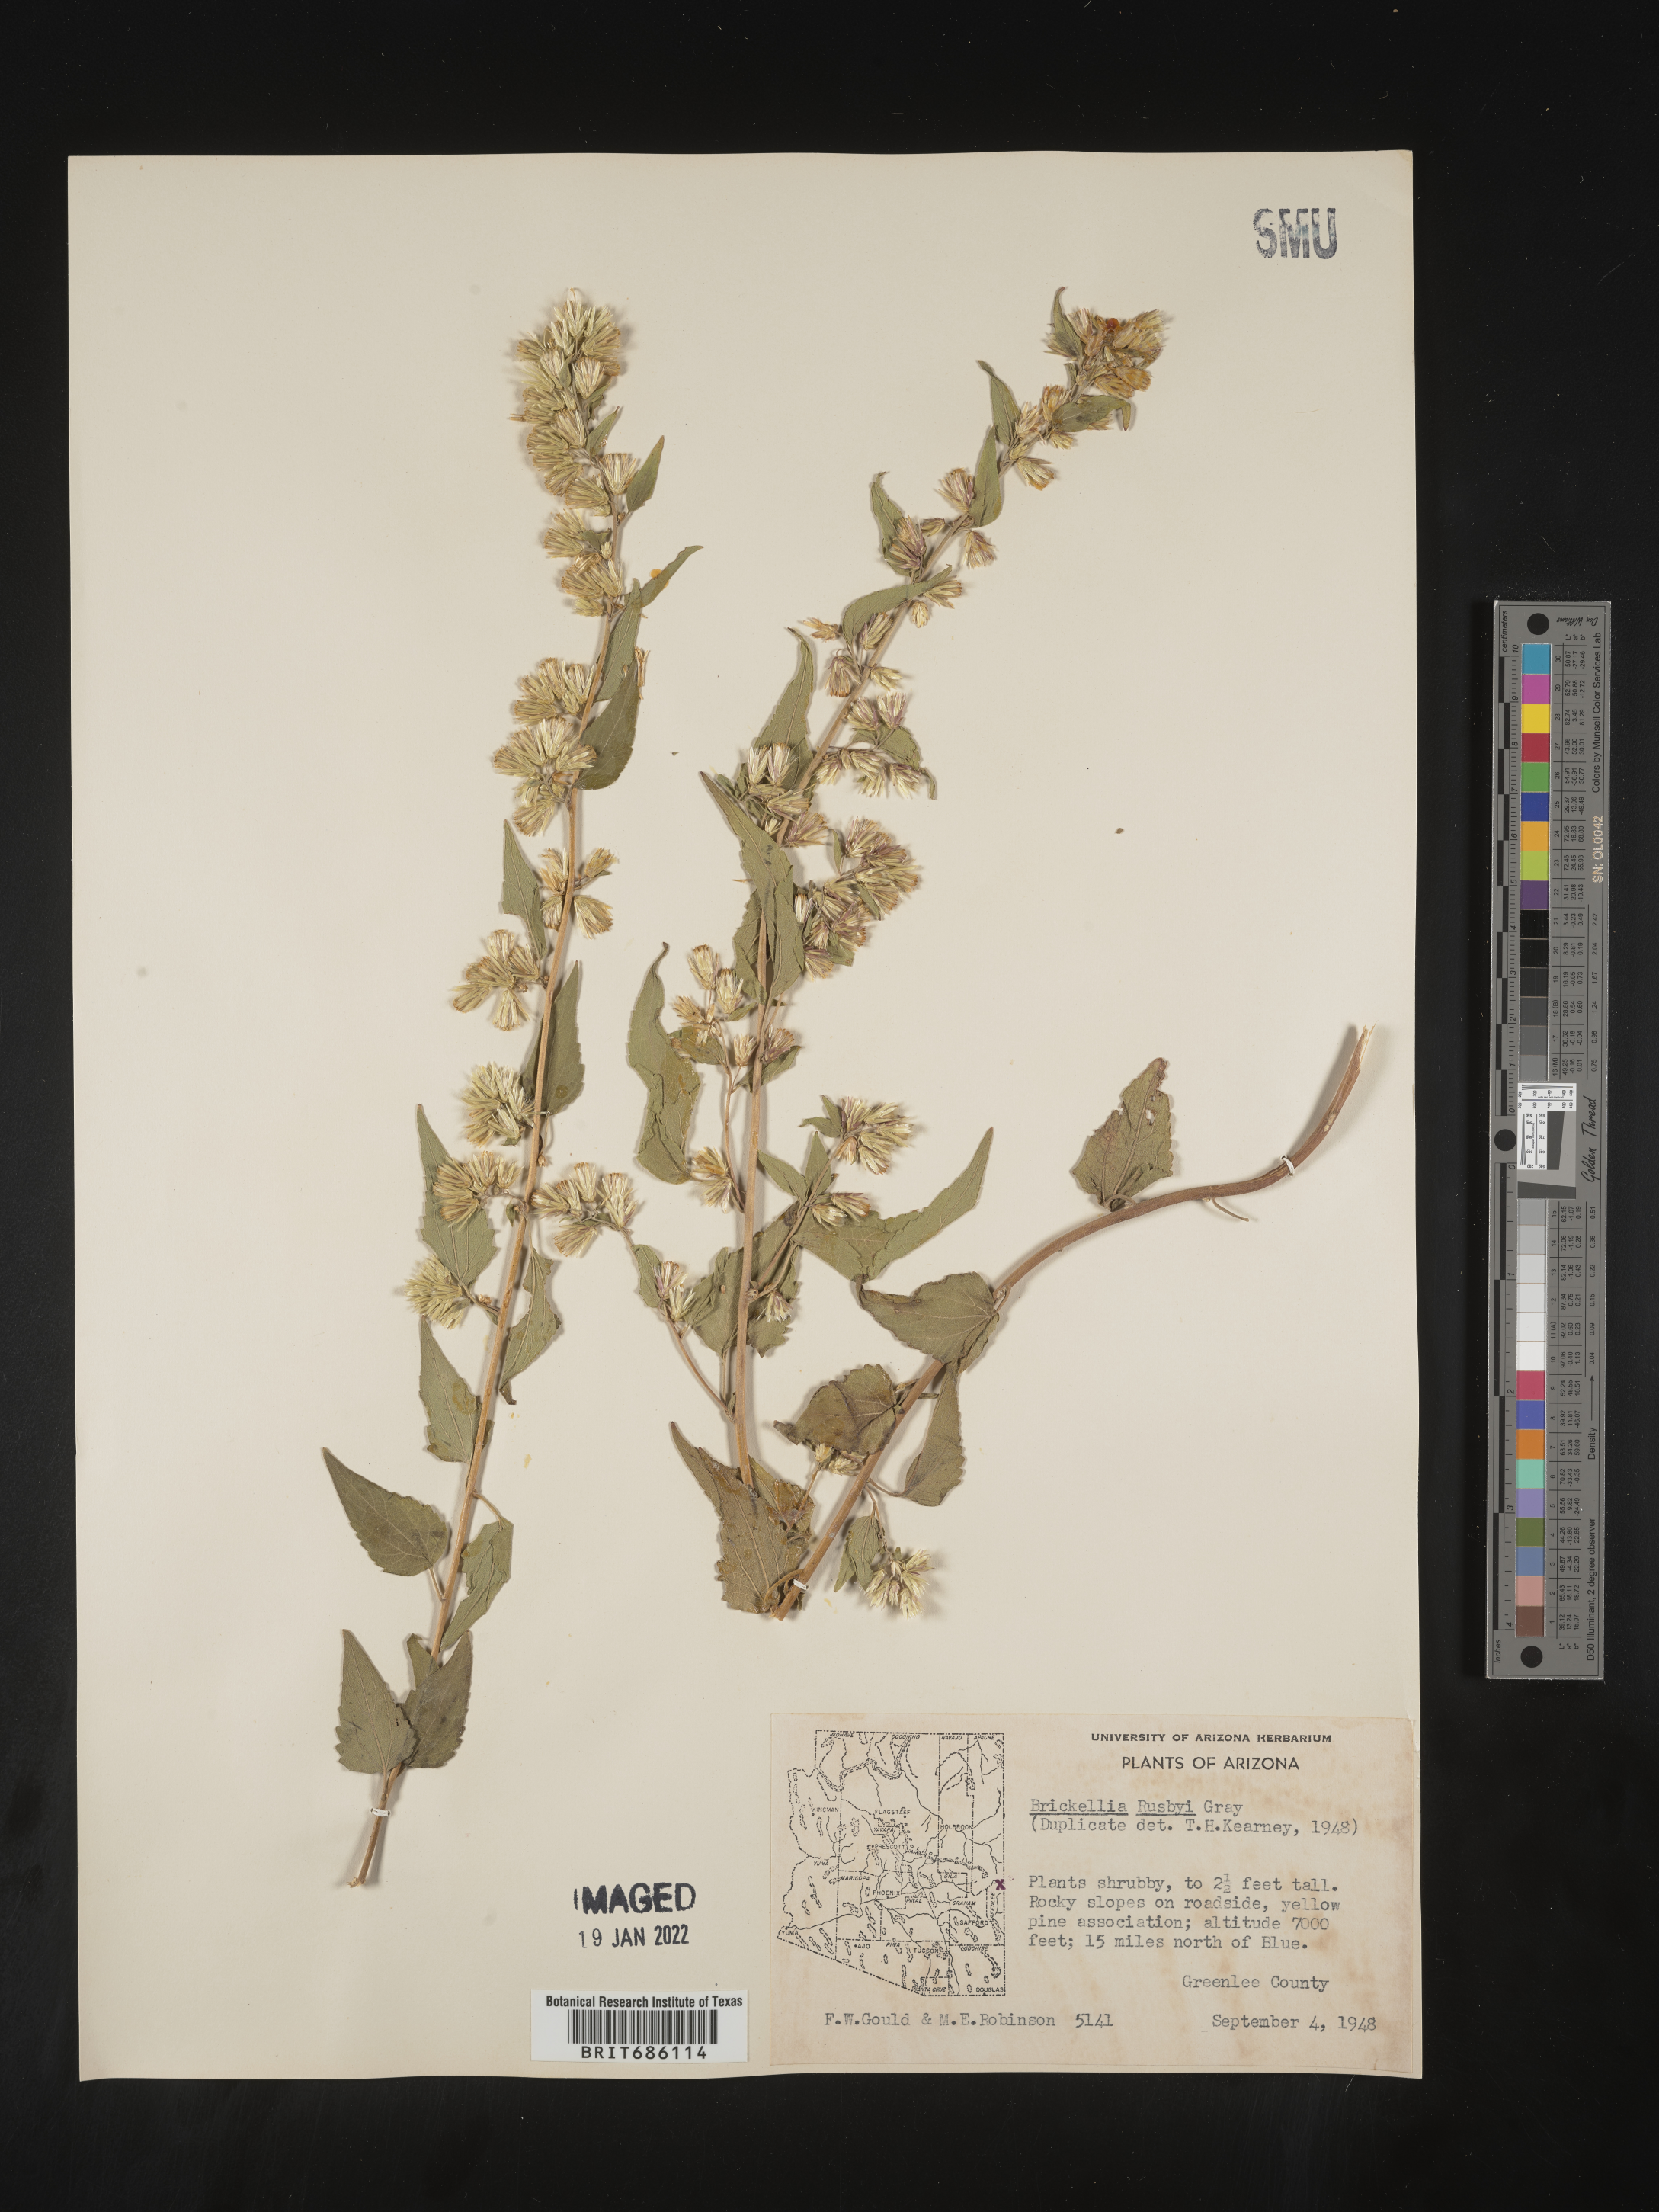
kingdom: Plantae
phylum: Tracheophyta
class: Magnoliopsida
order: Asterales
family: Asteraceae
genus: Brickellia
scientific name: Brickellia rusbyi
